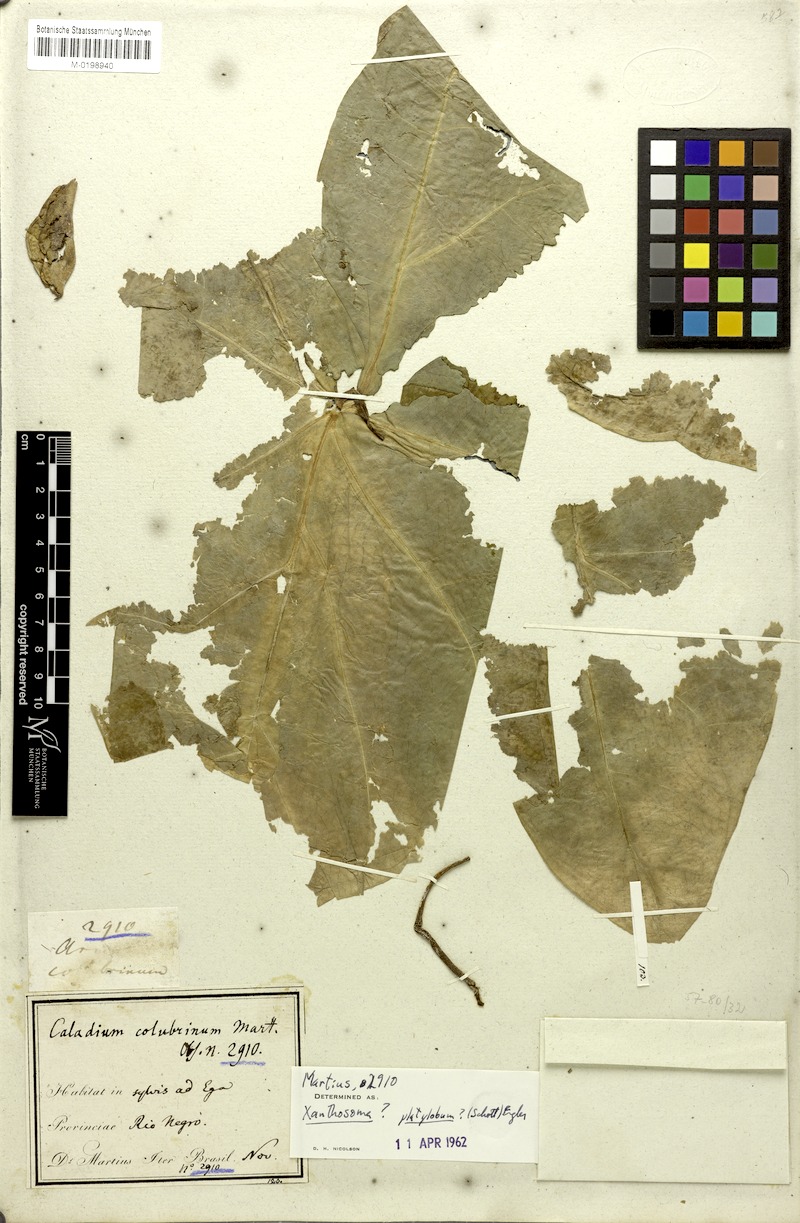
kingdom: Plantae
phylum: Tracheophyta
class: Liliopsida
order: Alismatales
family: Araceae
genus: Xanthosoma
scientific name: Xanthosoma platylobum
